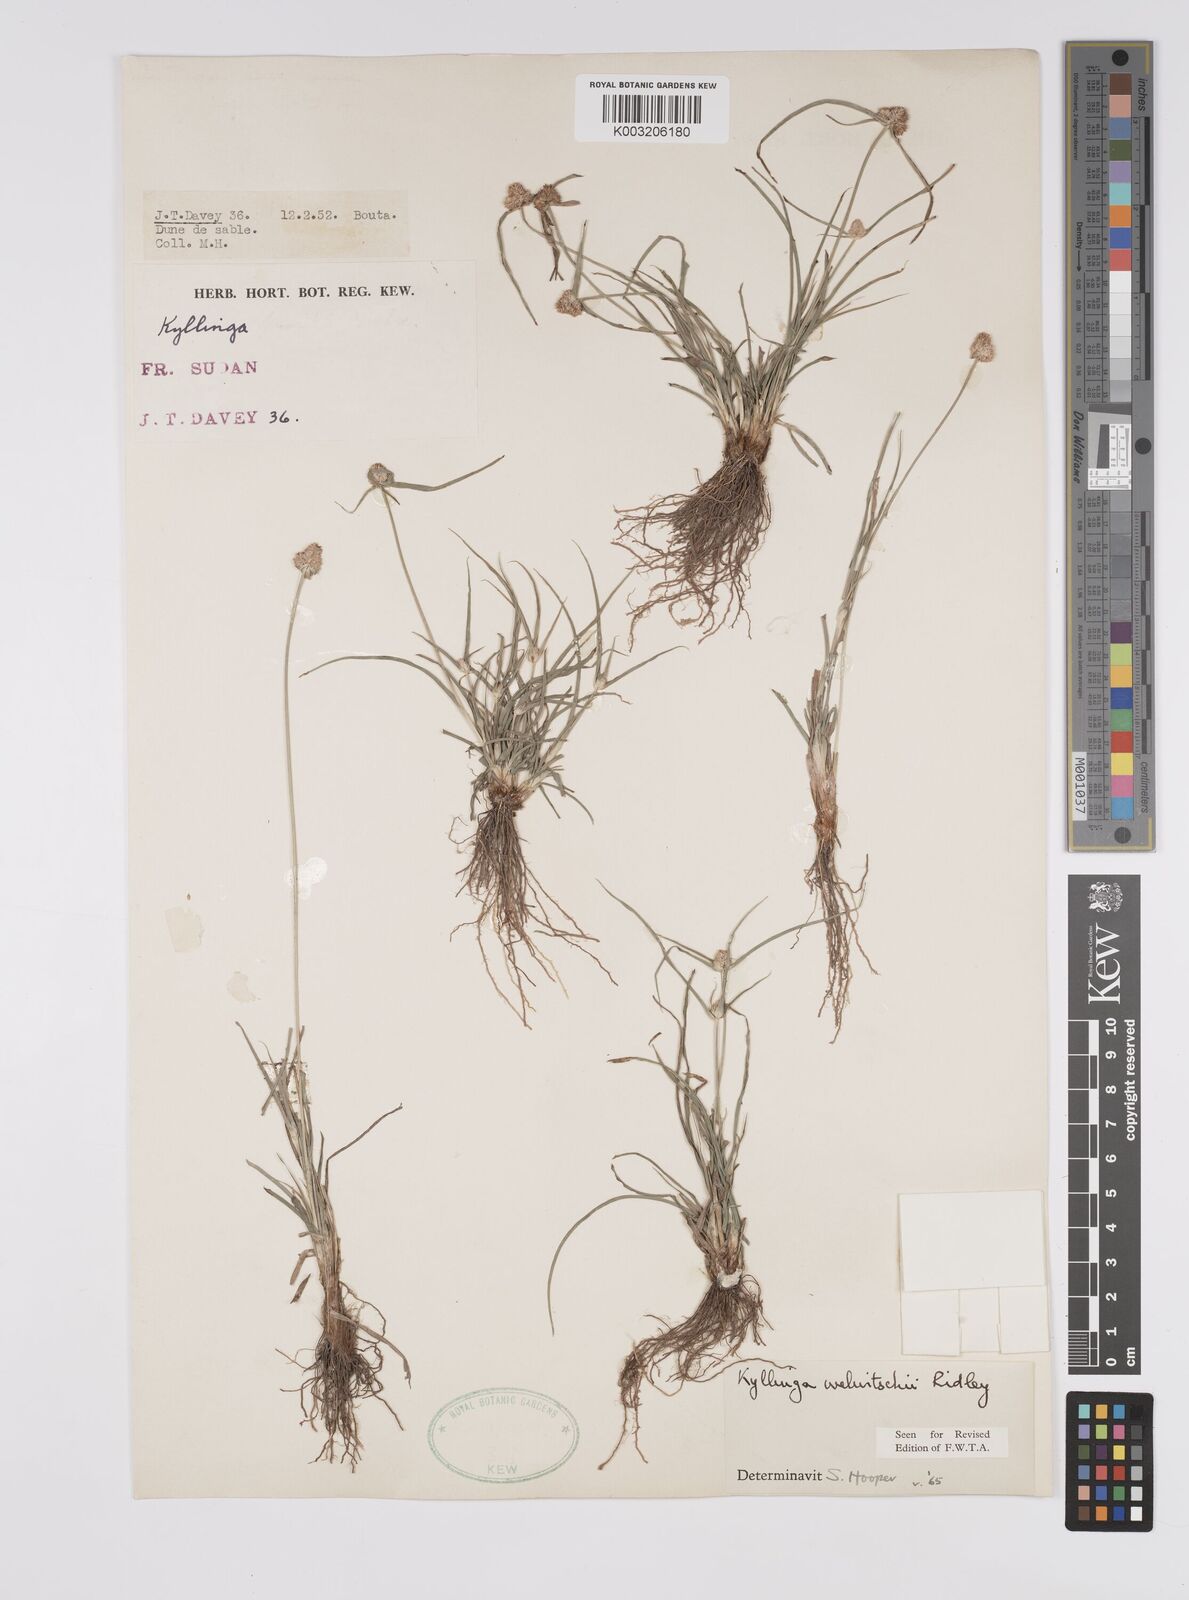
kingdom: Plantae
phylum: Tracheophyta
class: Liliopsida
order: Poales
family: Cyperaceae
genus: Cyperus
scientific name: Cyperus
